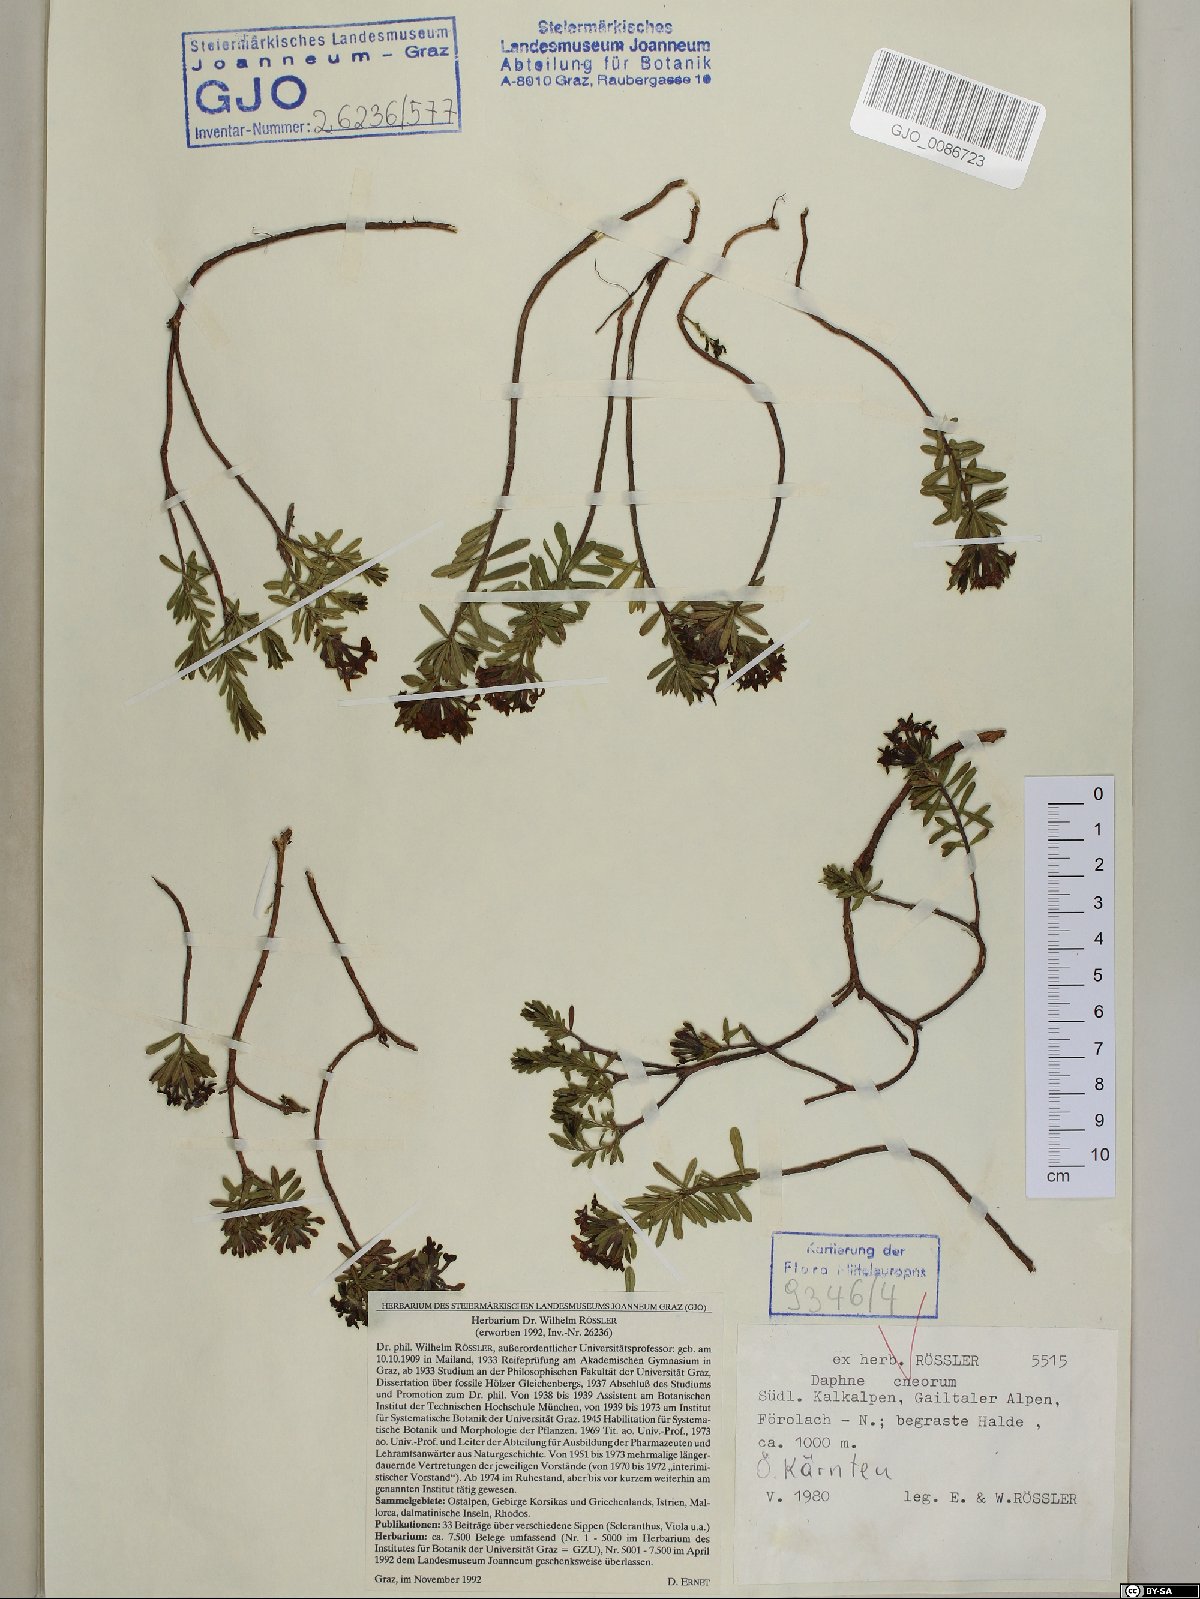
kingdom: Plantae
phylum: Tracheophyta
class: Magnoliopsida
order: Malvales
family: Thymelaeaceae
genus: Daphne
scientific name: Daphne cneorum
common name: Garland-flower
